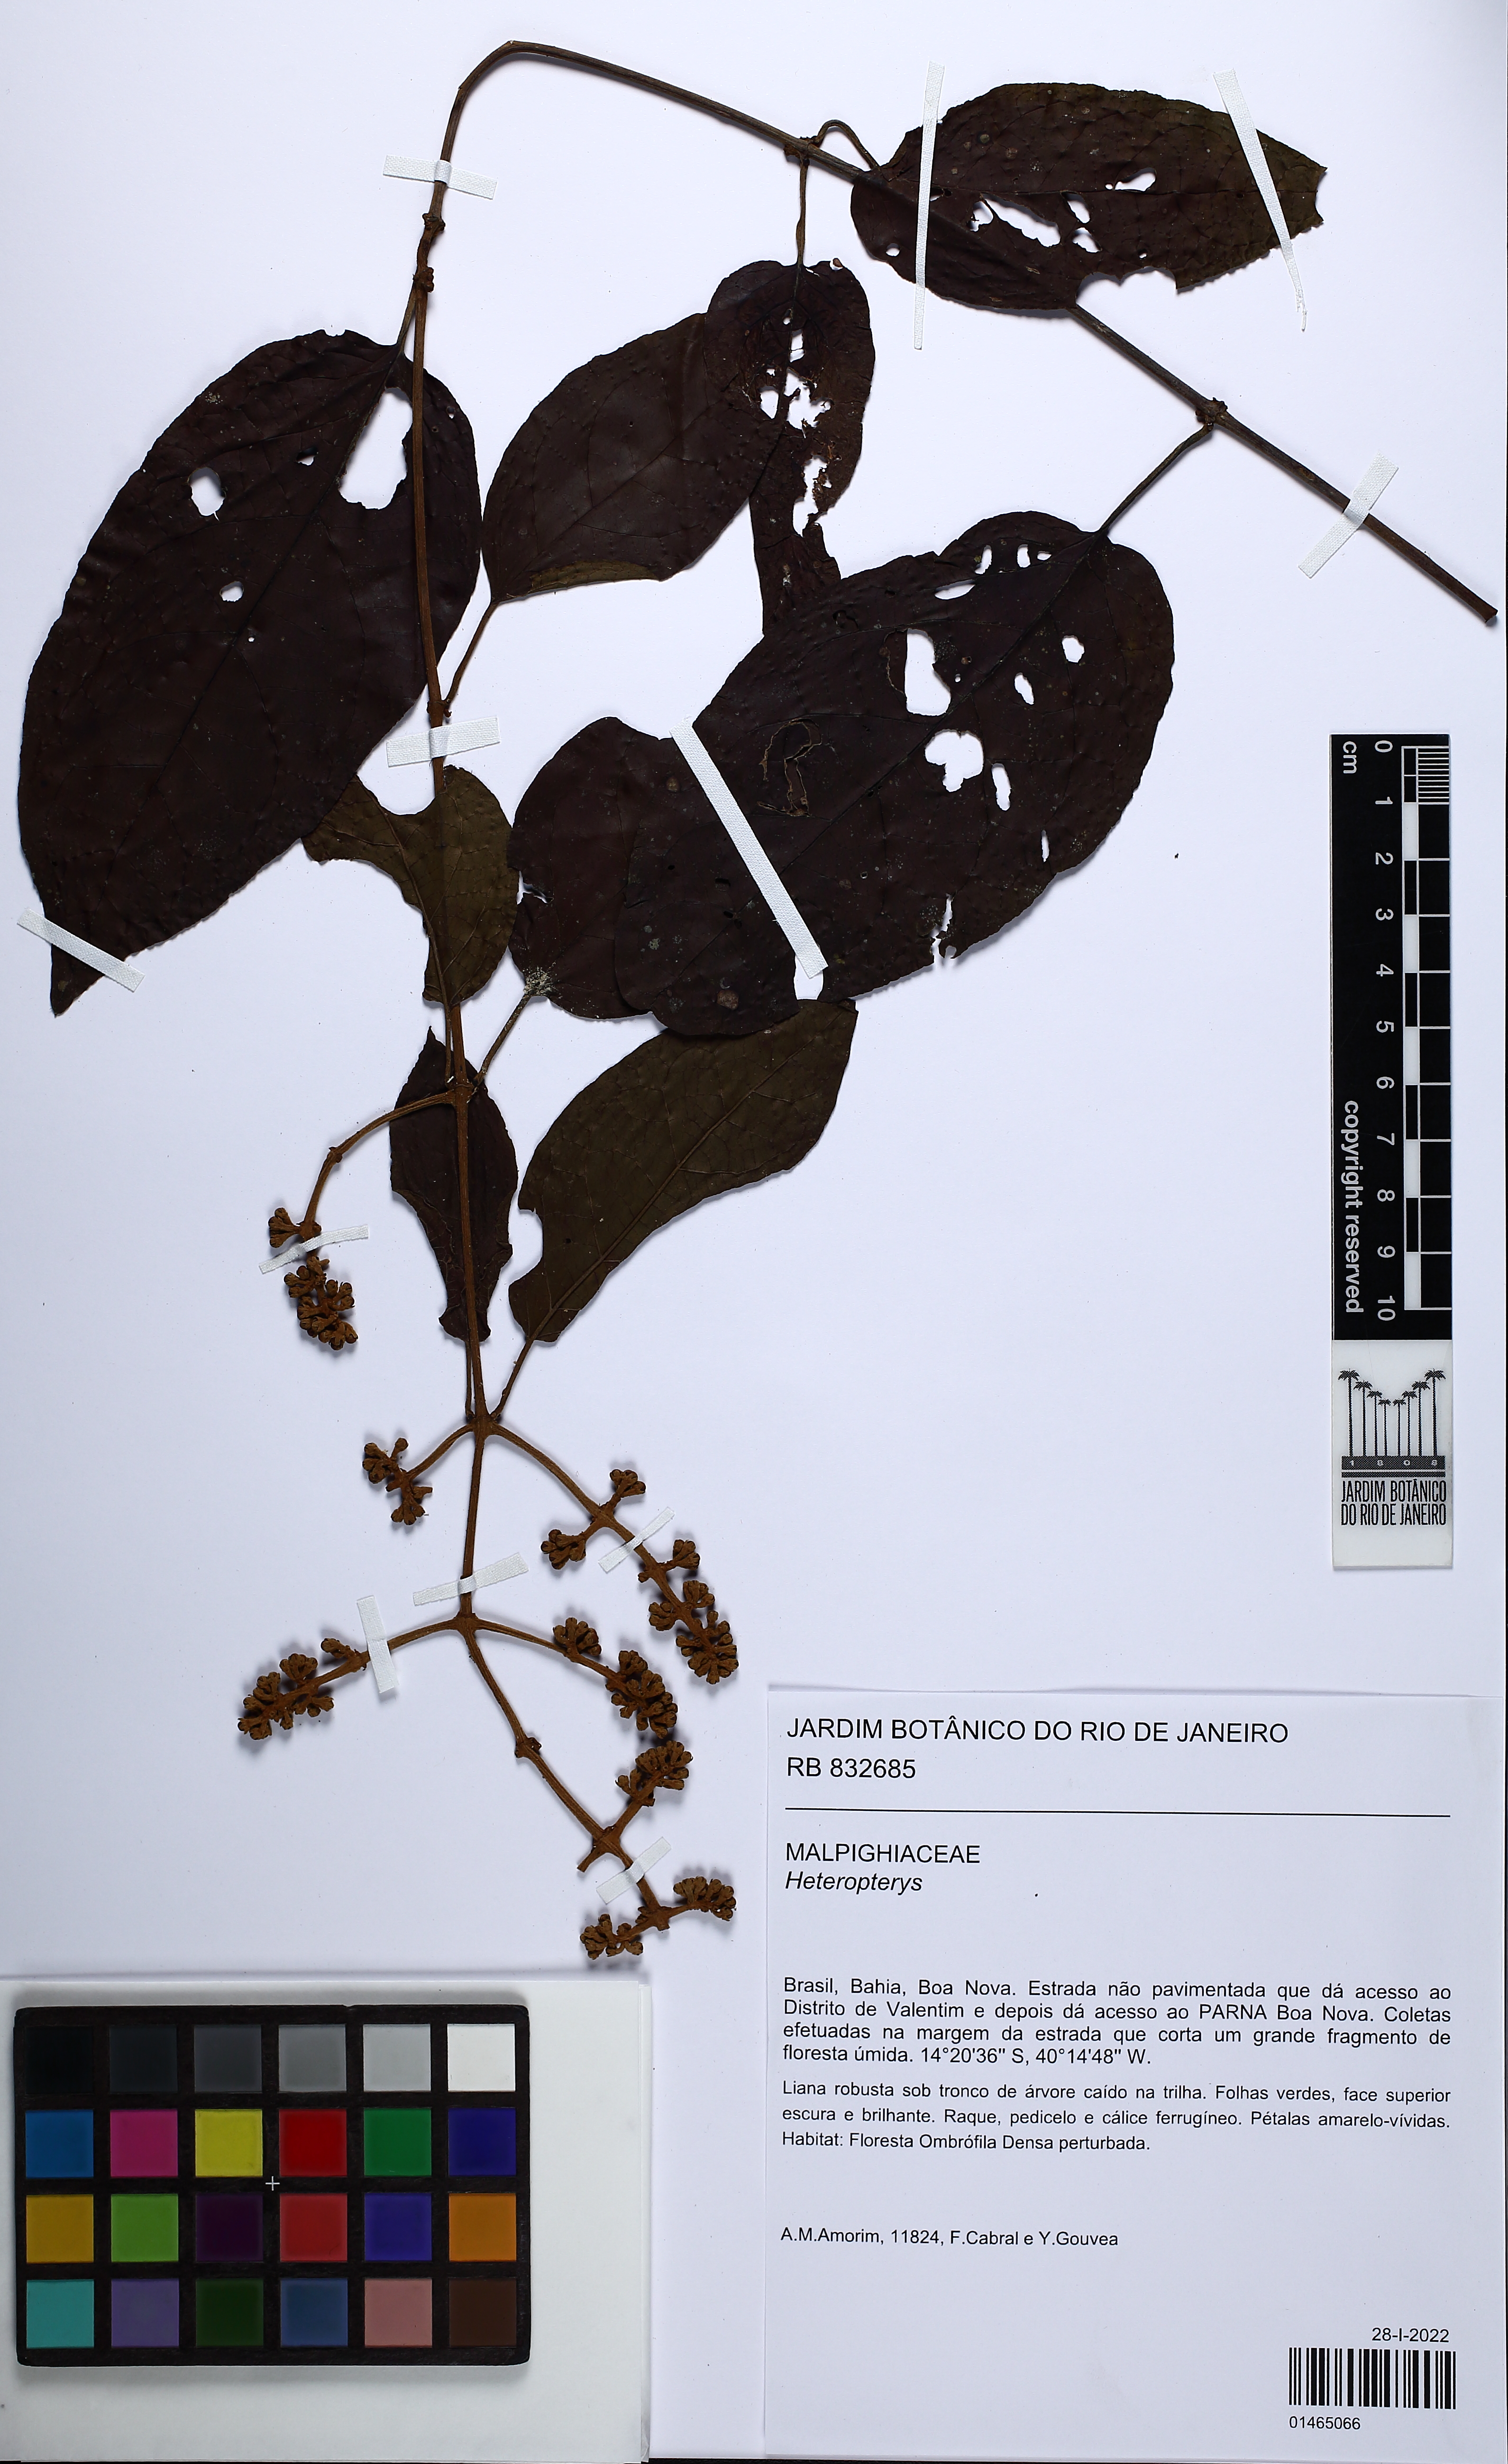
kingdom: Plantae
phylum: Tracheophyta
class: Magnoliopsida
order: Malpighiales
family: Malpighiaceae
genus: Heteropterys
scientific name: Heteropterys
